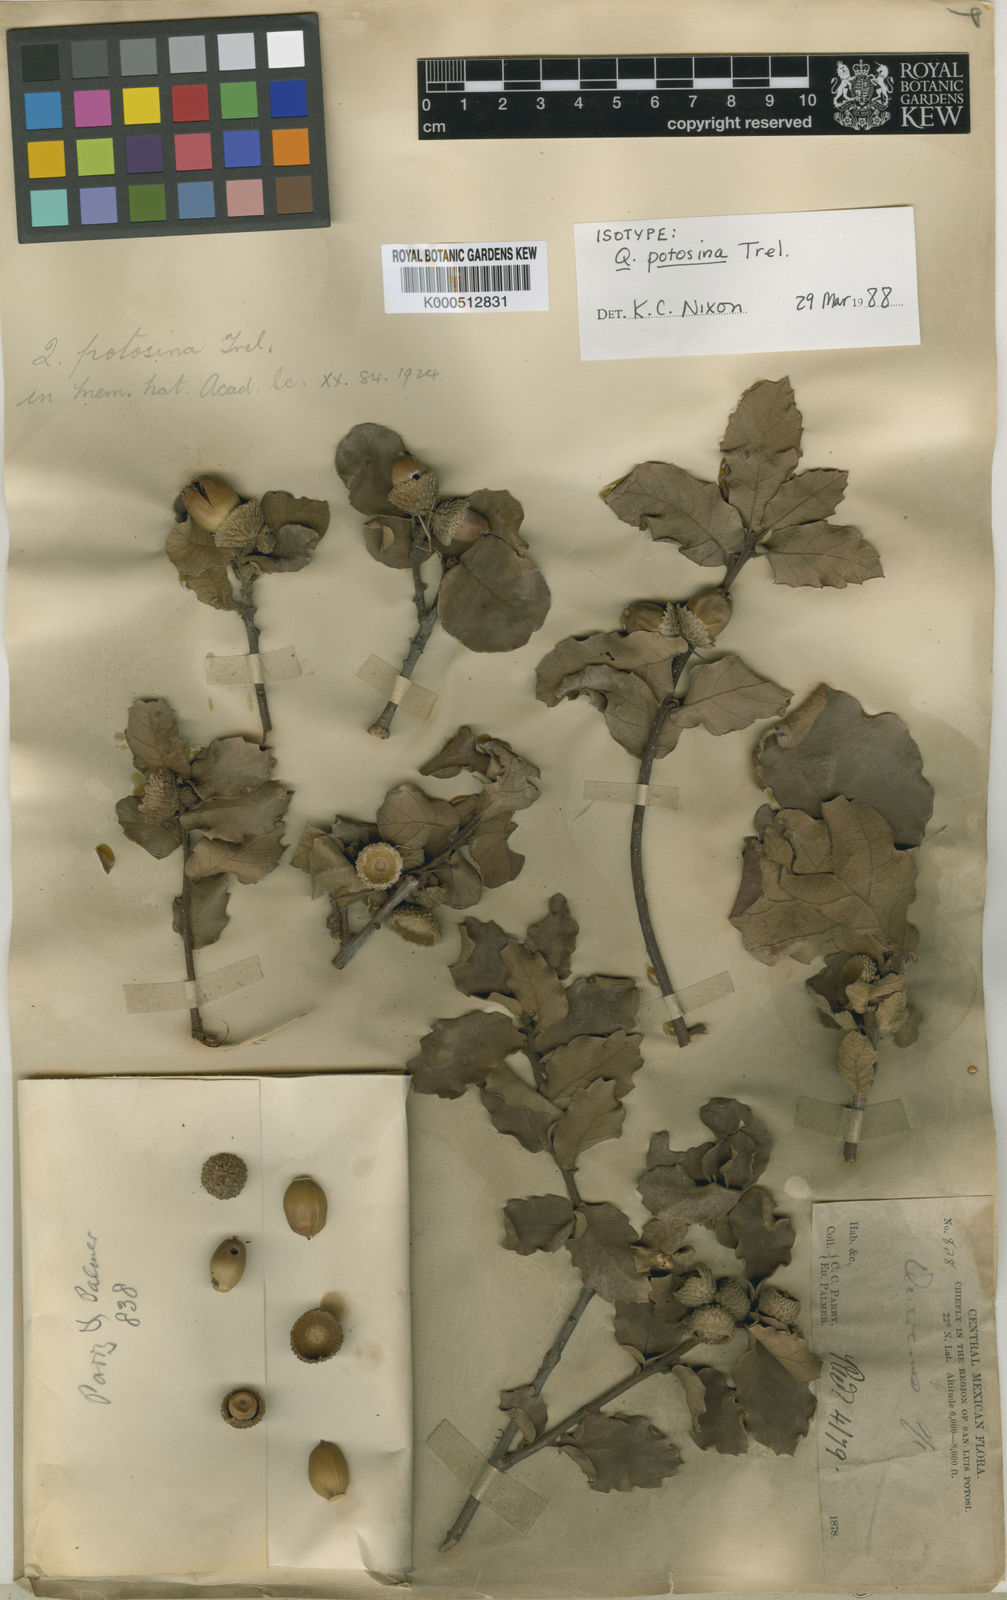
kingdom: Plantae
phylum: Tracheophyta
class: Magnoliopsida
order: Fagales
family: Fagaceae
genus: Quercus
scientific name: Quercus potosina
